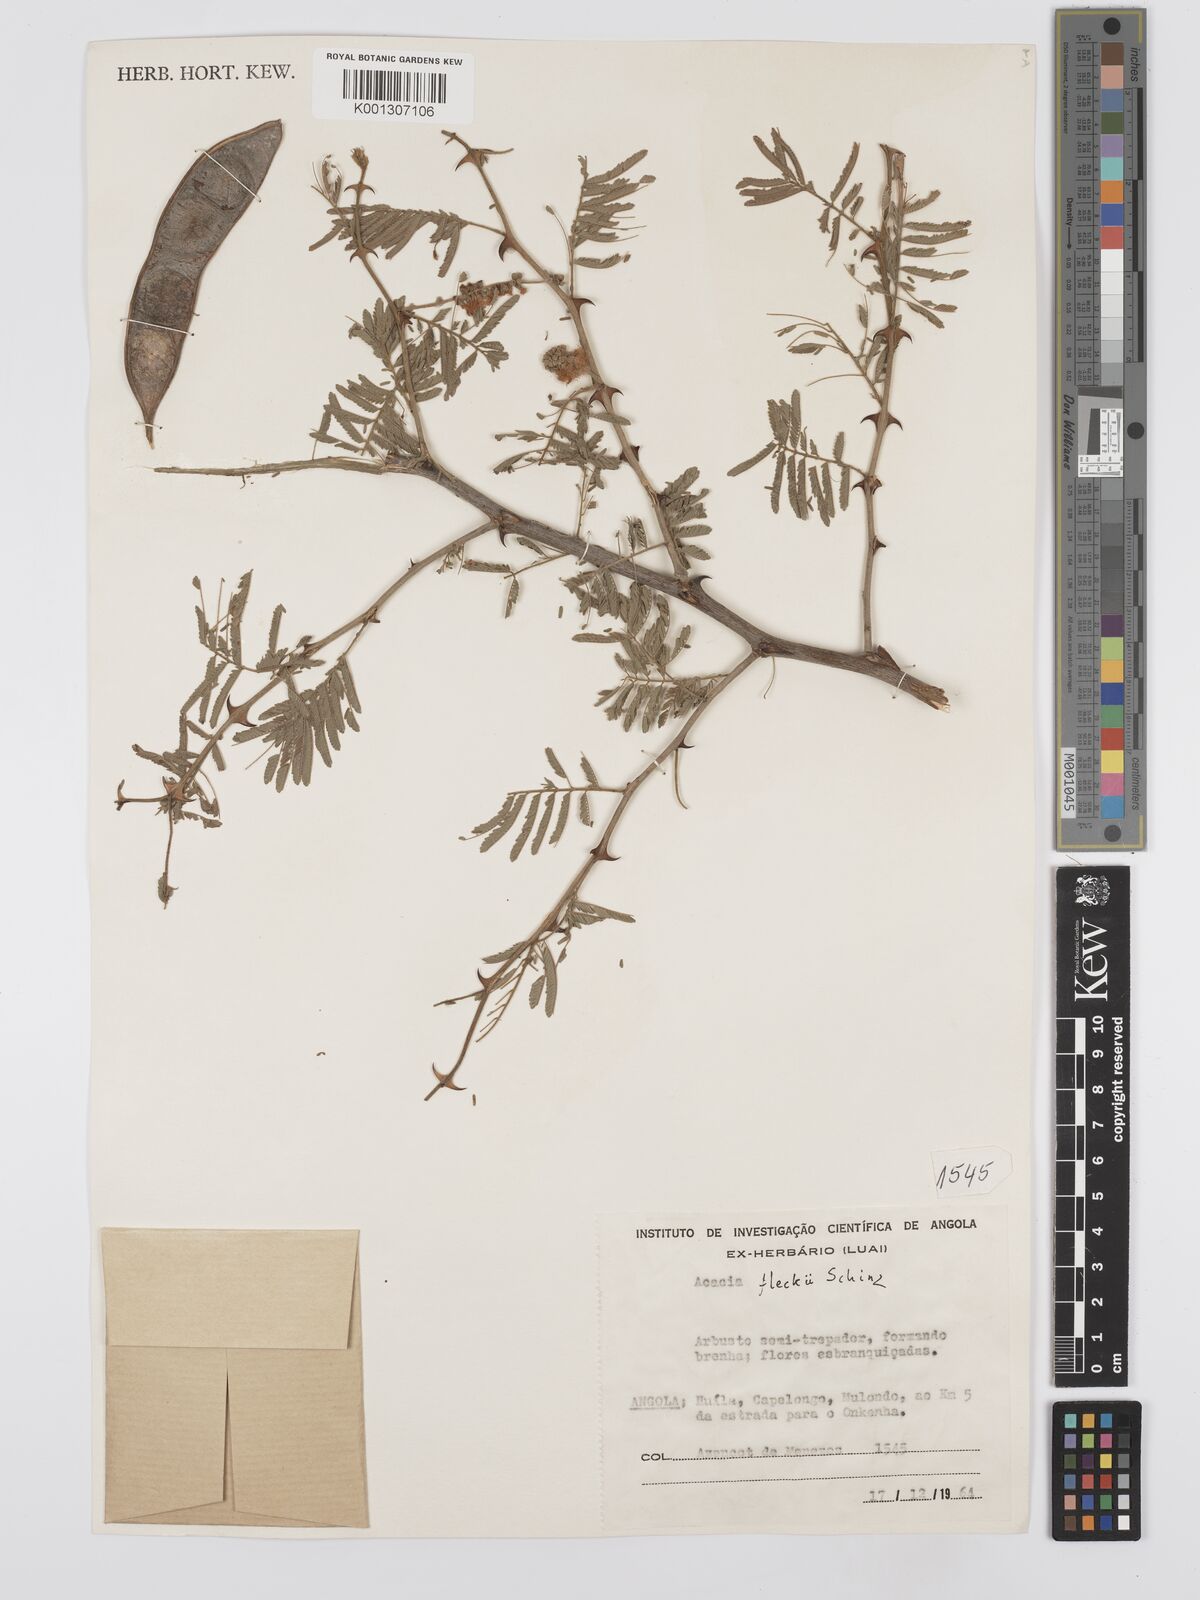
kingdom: Plantae
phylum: Tracheophyta
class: Magnoliopsida
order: Fabales
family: Fabaceae
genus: Senegalia
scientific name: Senegalia fleckii
